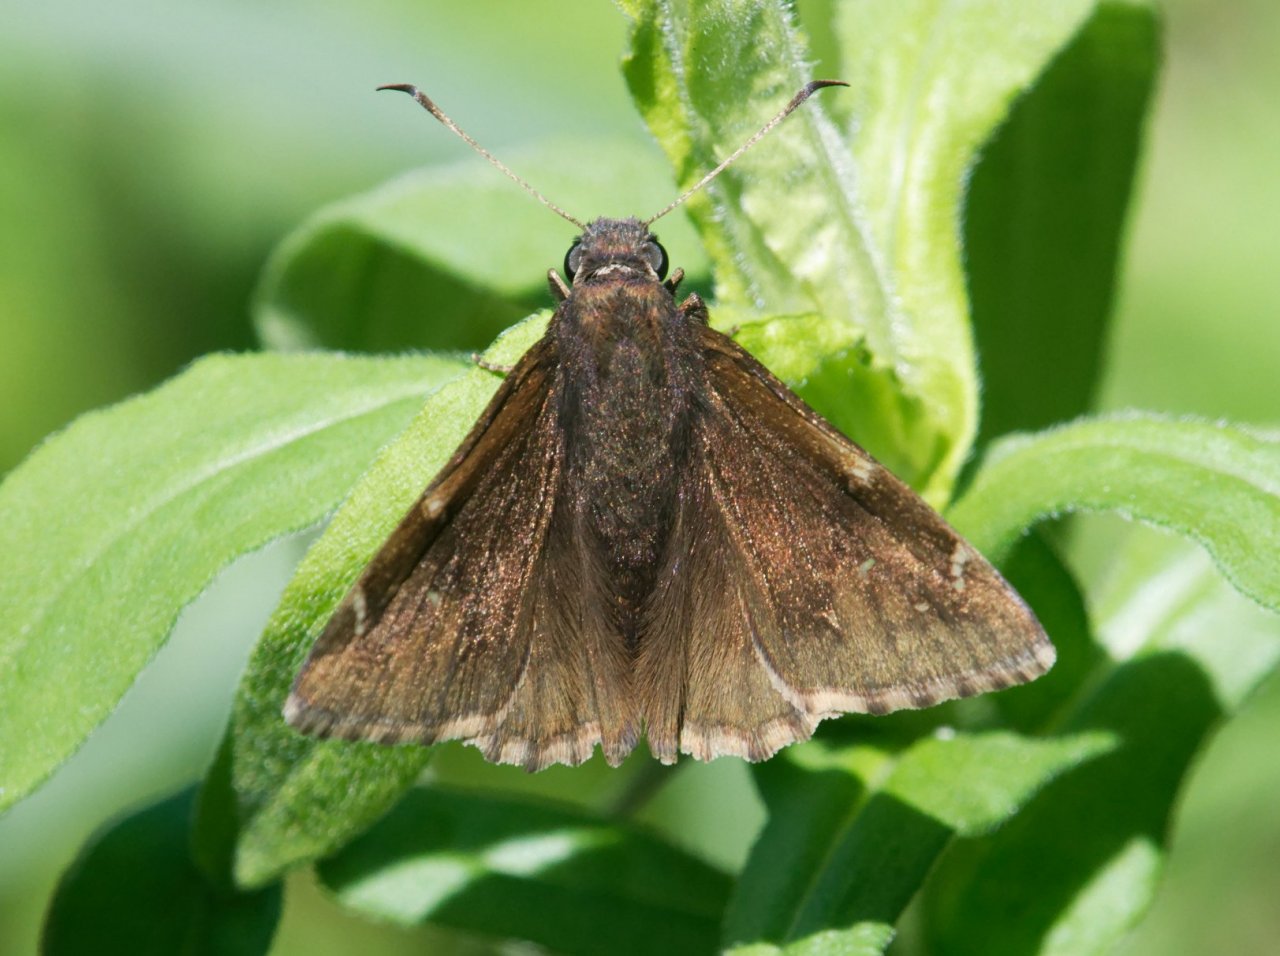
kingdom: Animalia
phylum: Arthropoda
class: Insecta
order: Lepidoptera
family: Hesperiidae
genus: Autochton
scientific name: Autochton
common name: Northern Cloudywing
